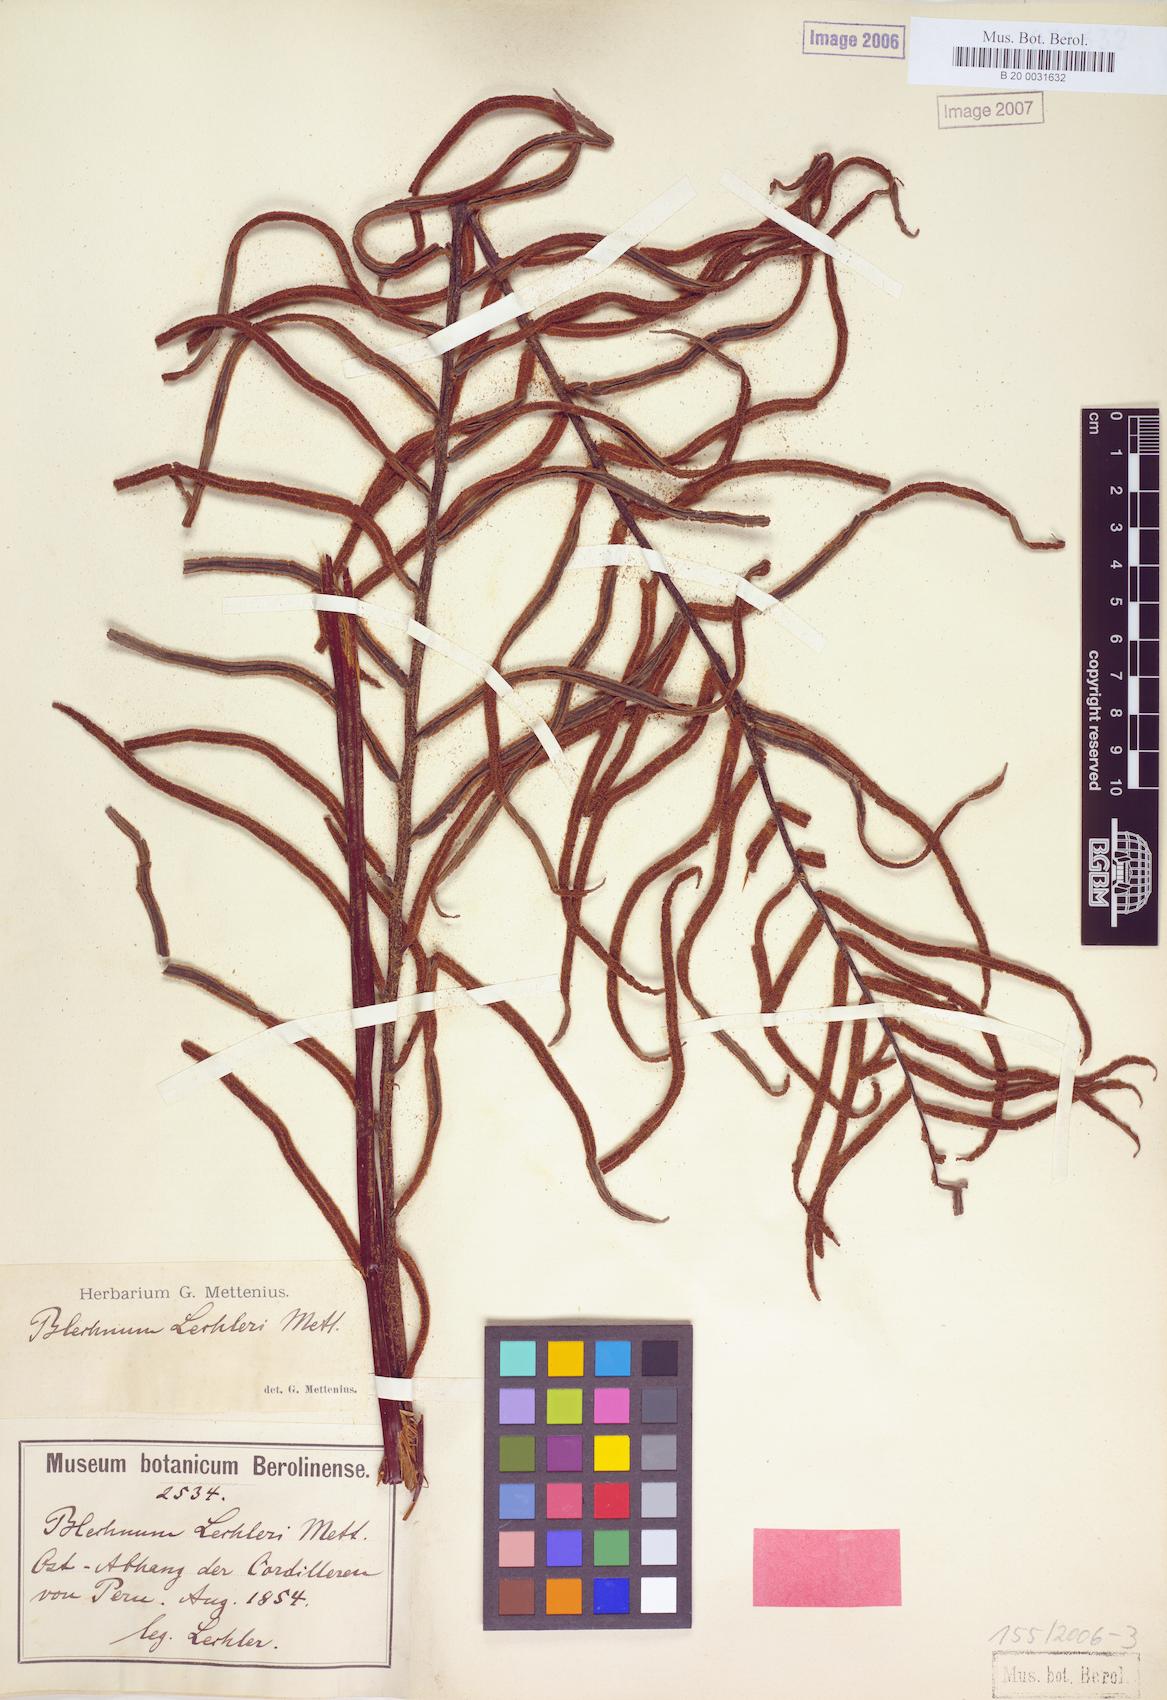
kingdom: Plantae
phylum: Tracheophyta
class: Polypodiopsida
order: Polypodiales
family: Blechnaceae
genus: Parablechnum
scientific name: Parablechnum lechleri
